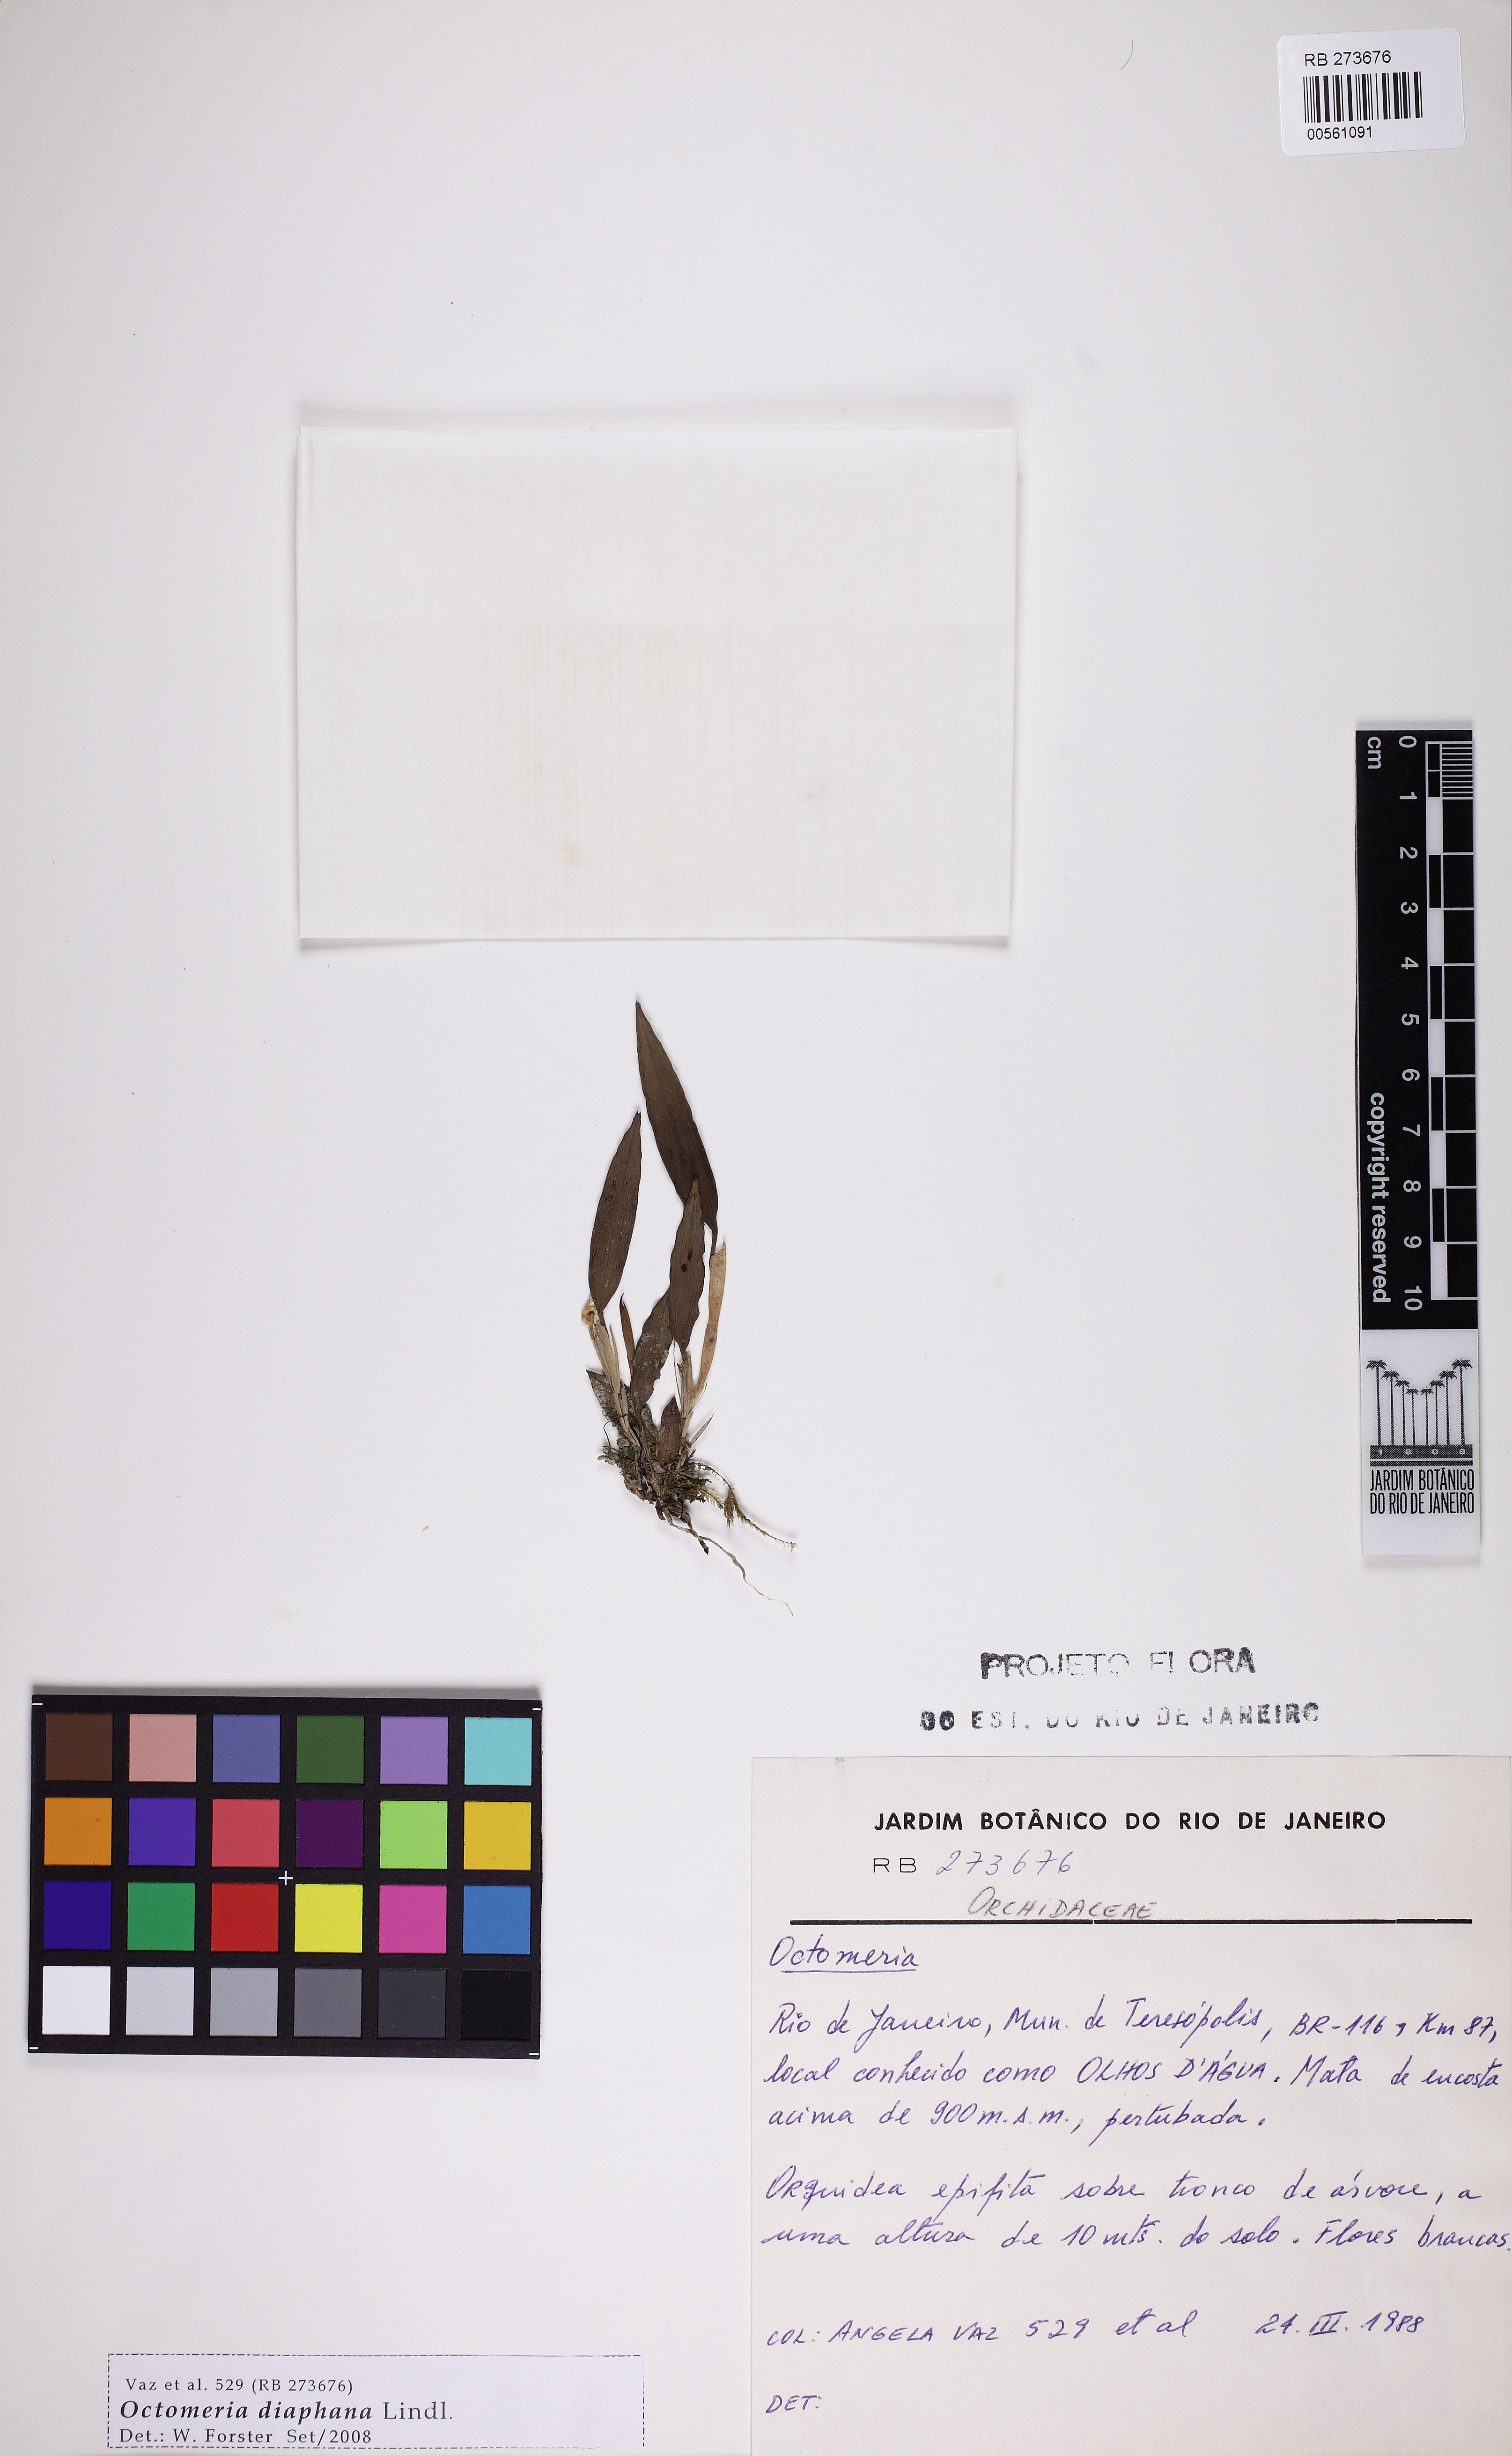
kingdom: Plantae
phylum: Tracheophyta
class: Liliopsida
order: Asparagales
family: Orchidaceae
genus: Octomeria
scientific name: Octomeria diaphana
